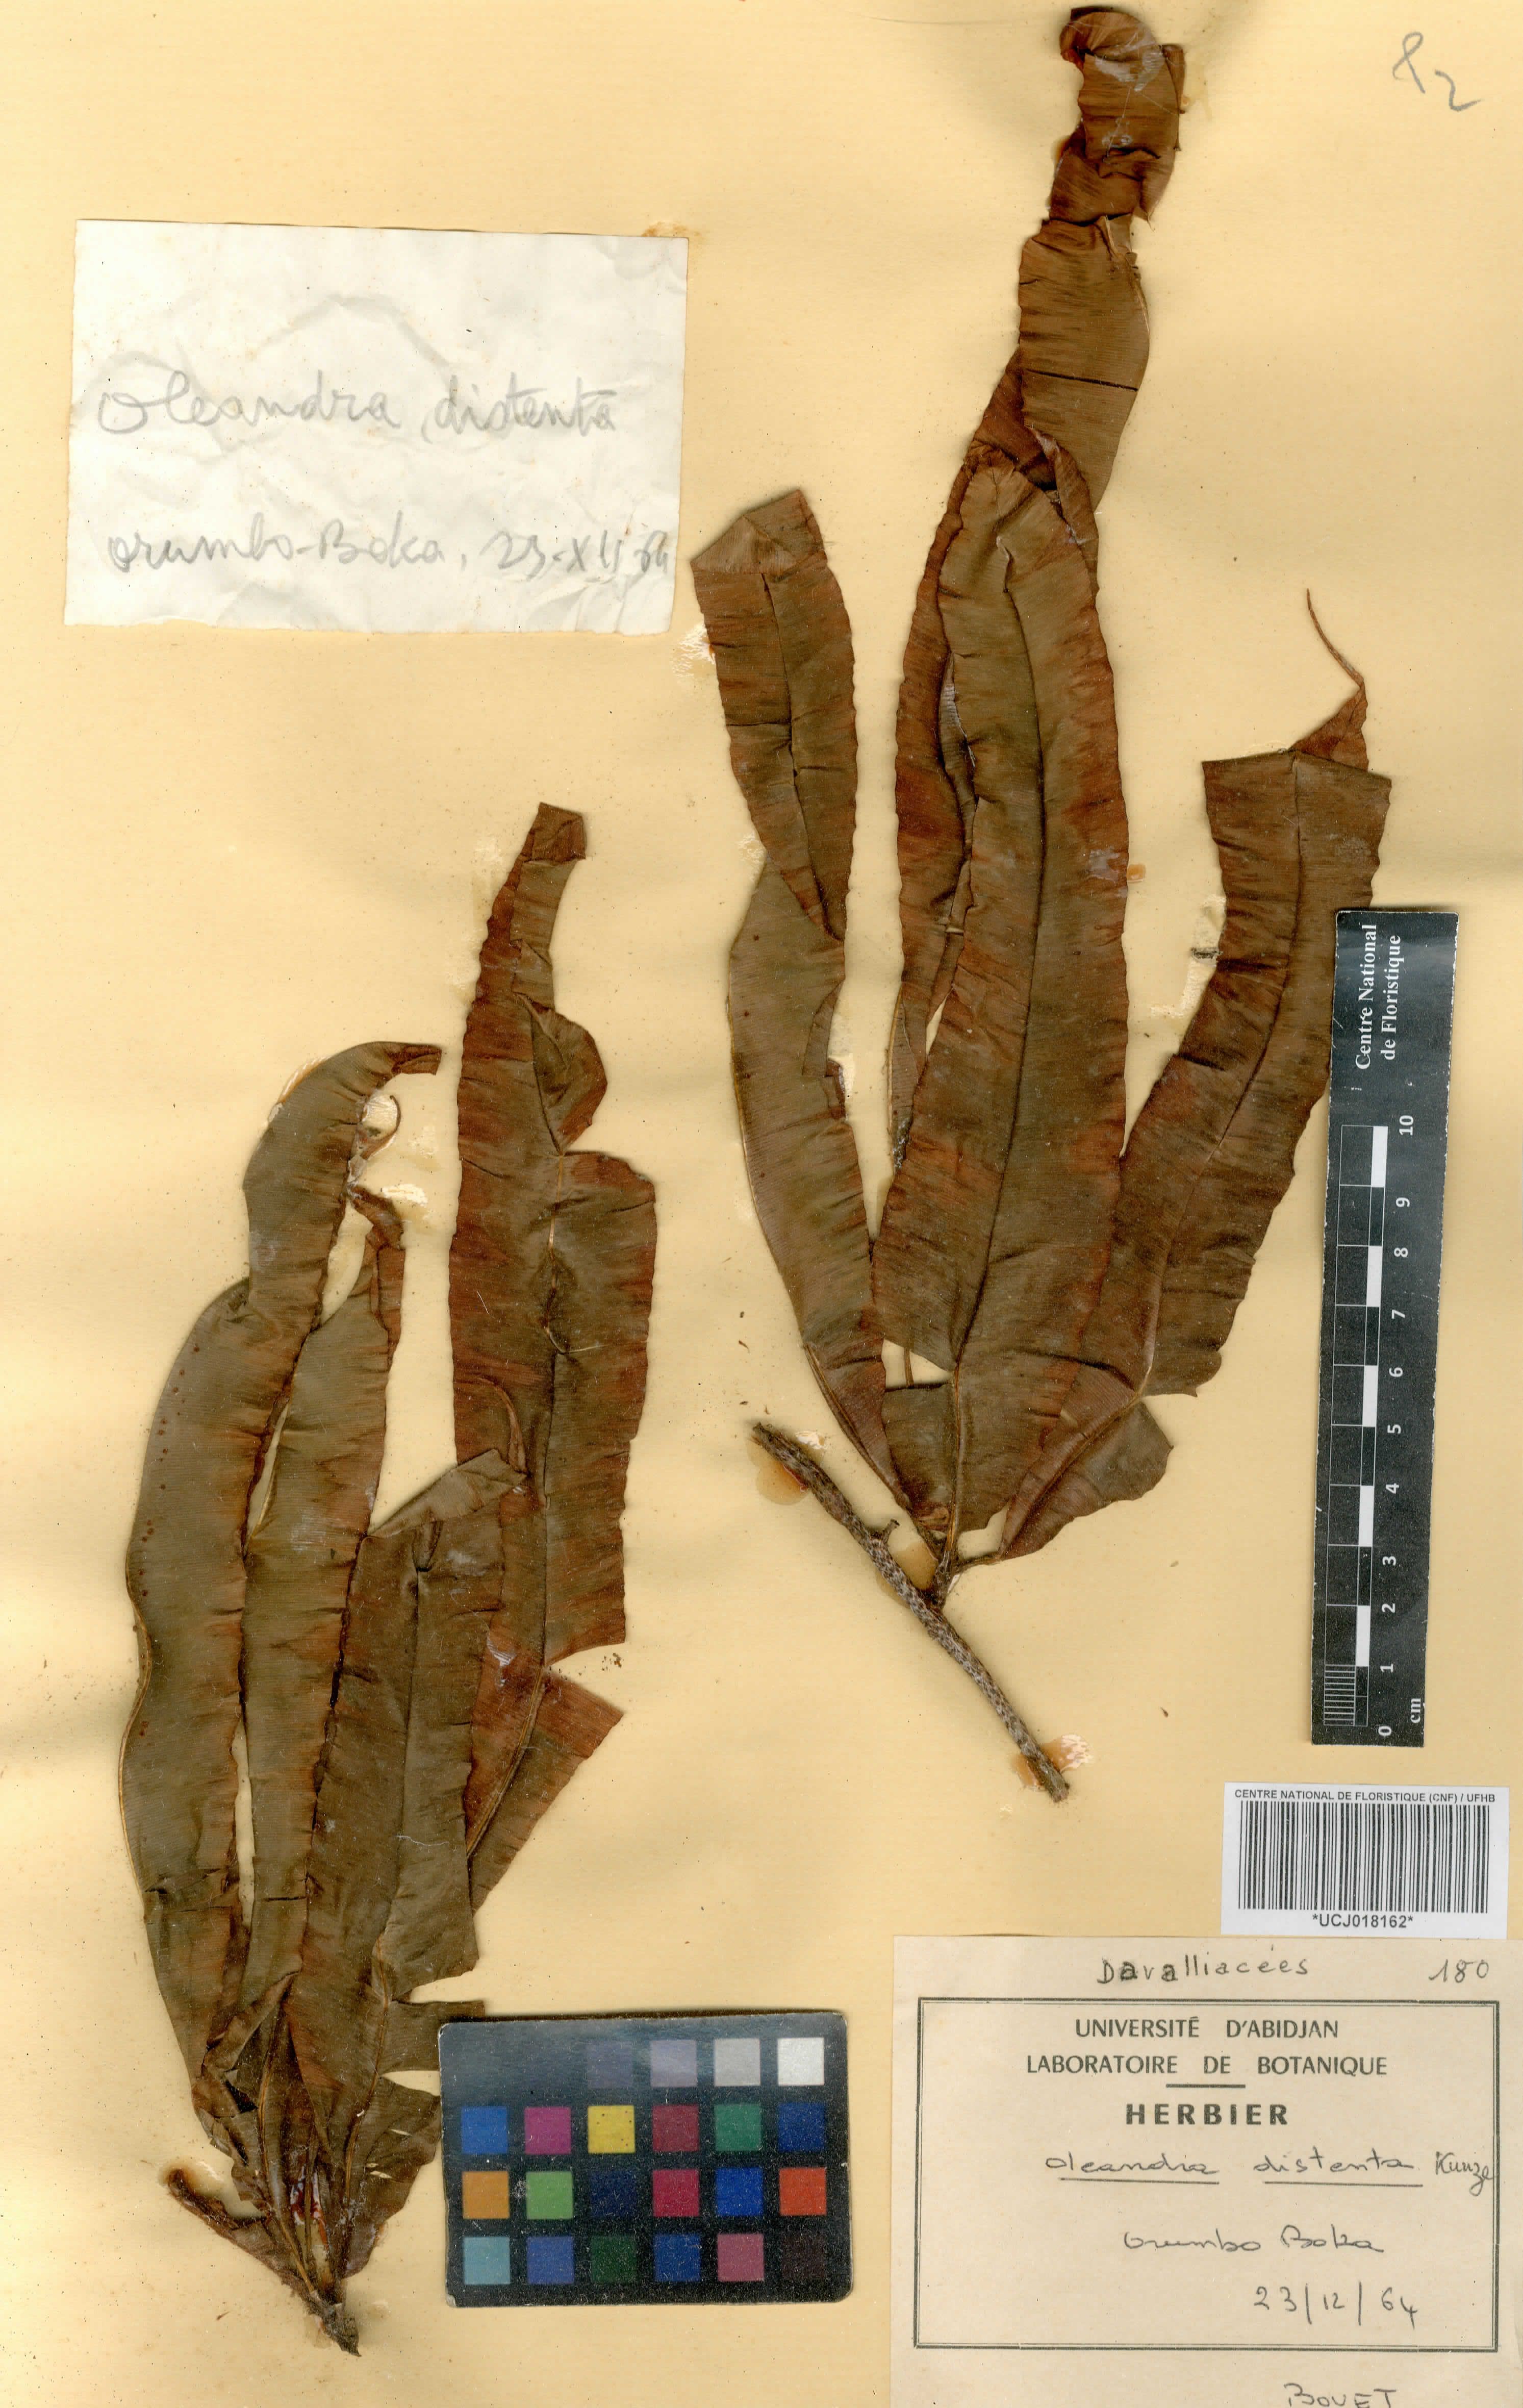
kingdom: Plantae
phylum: Tracheophyta
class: Polypodiopsida
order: Polypodiales
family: Oleandraceae
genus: Oleandra
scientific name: Oleandra distenta
